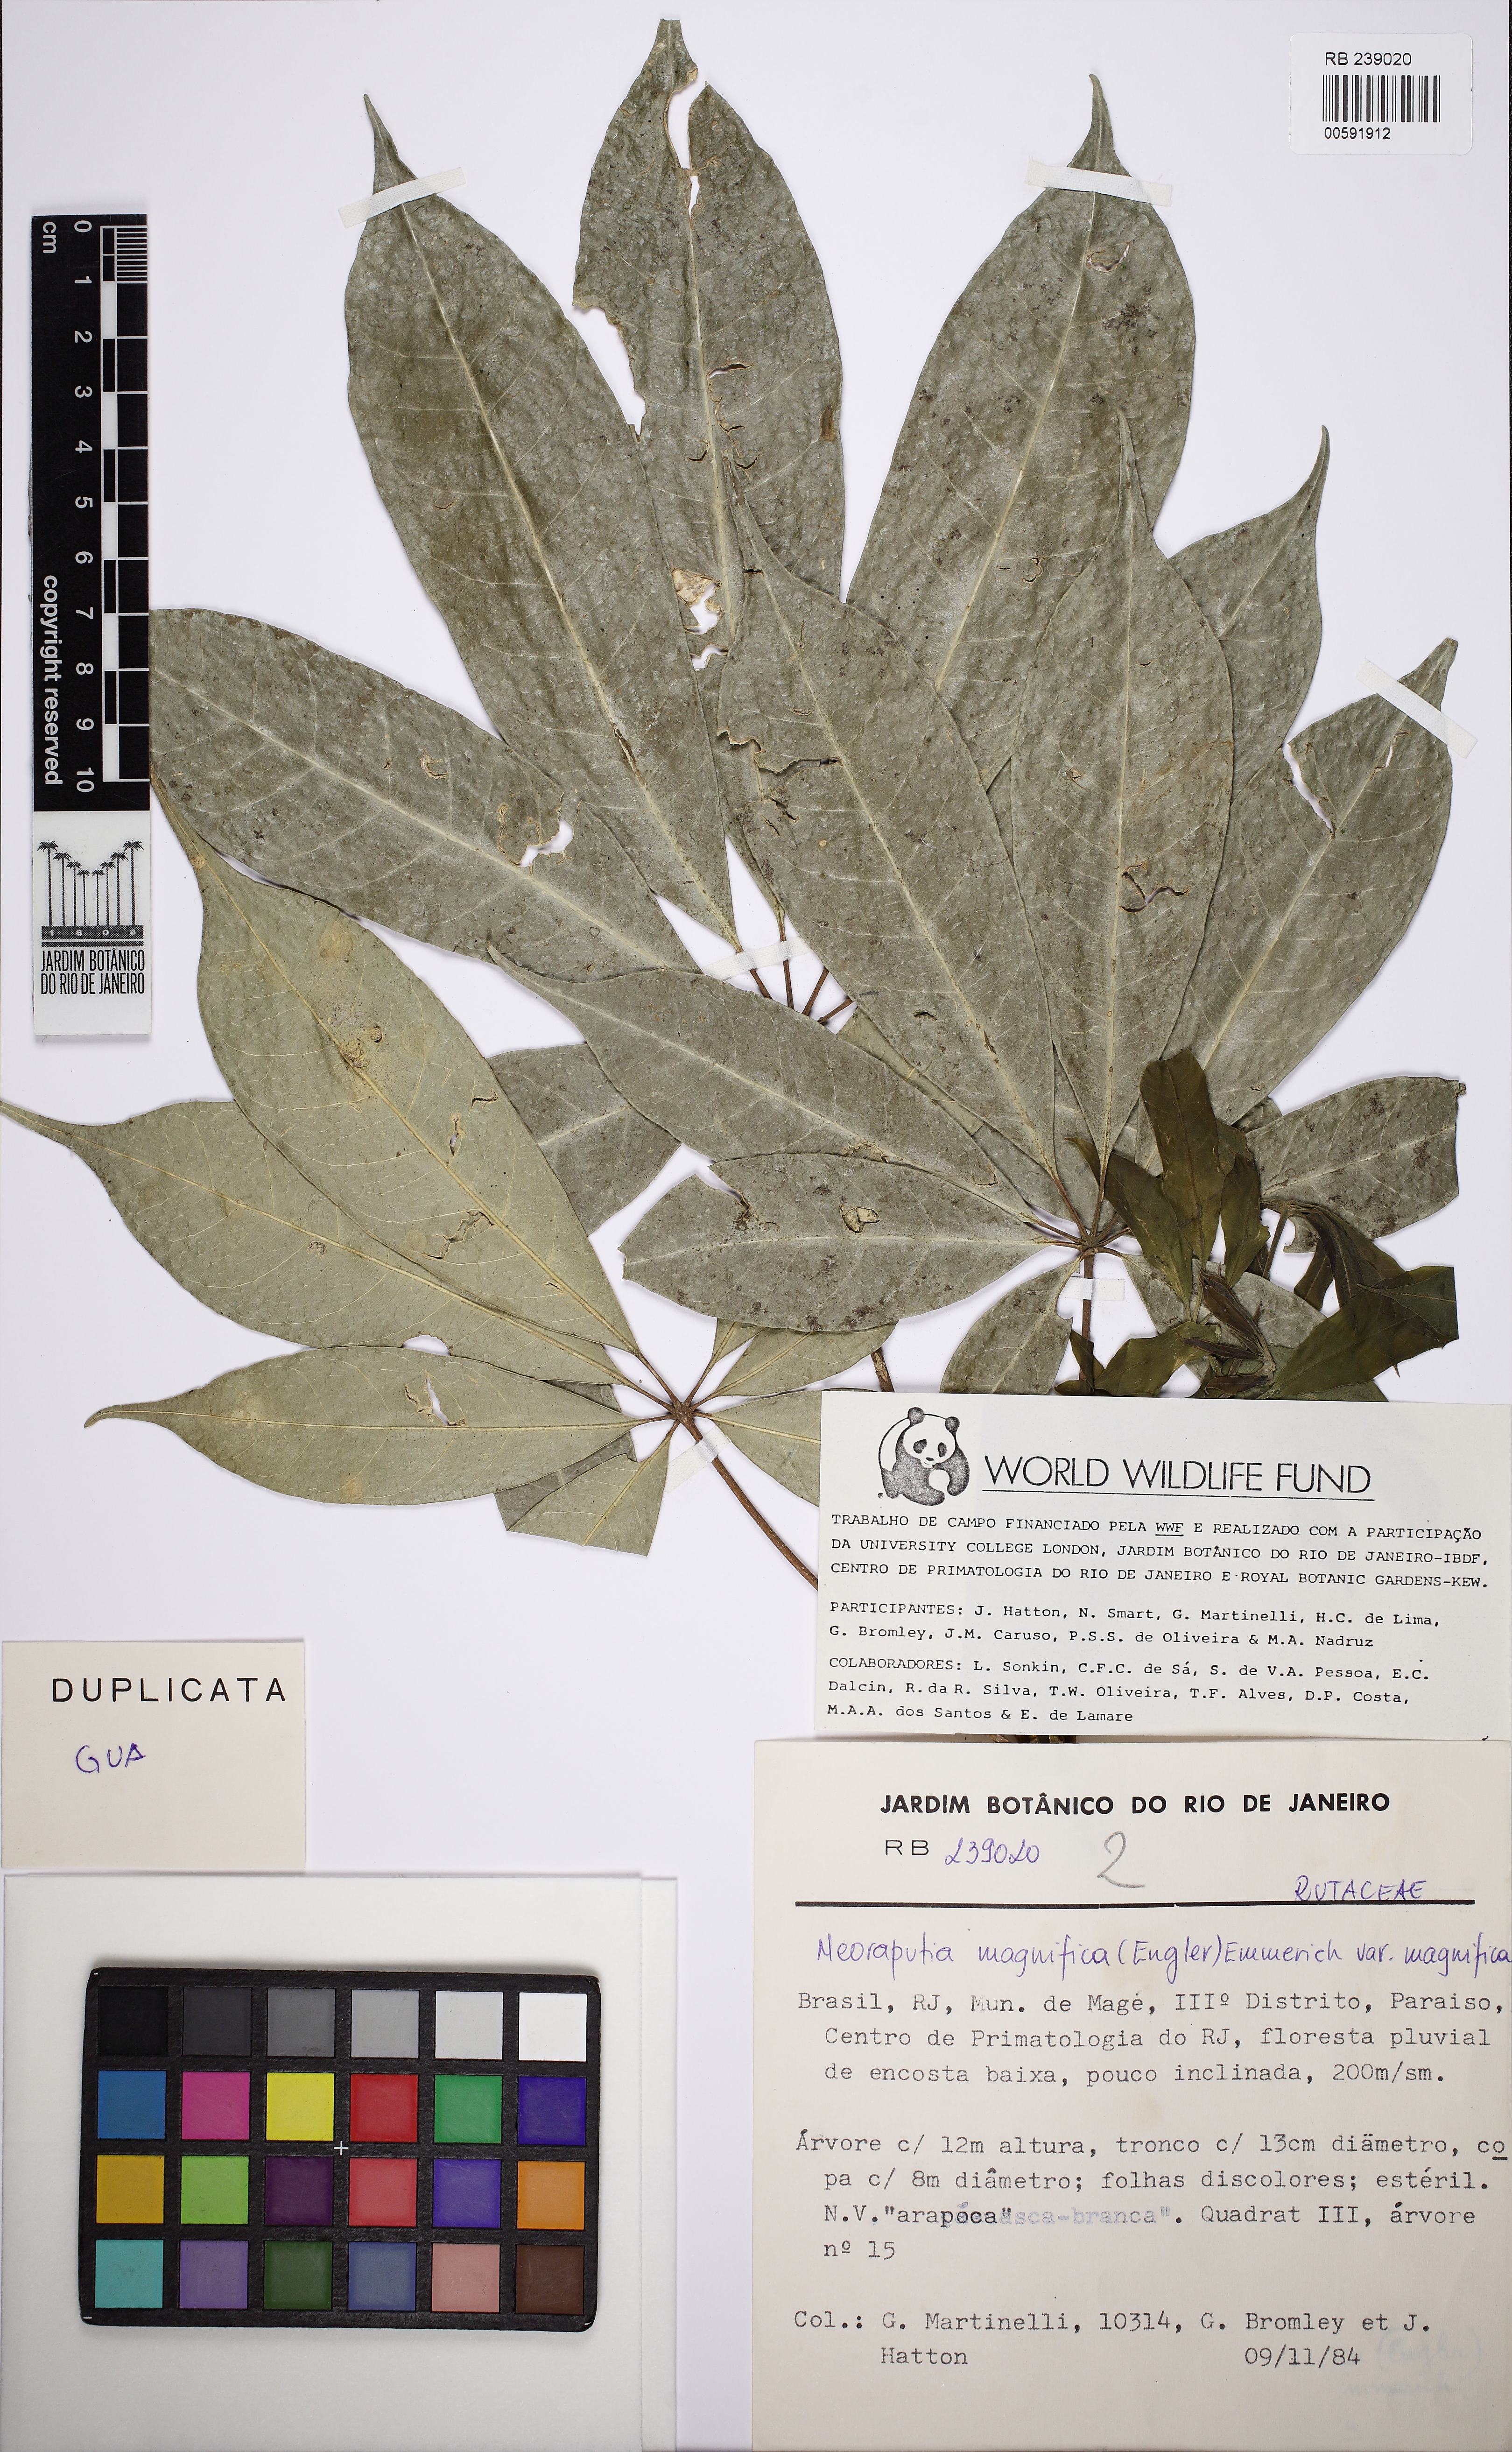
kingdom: Plantae
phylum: Tracheophyta
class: Magnoliopsida
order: Sapindales
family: Rutaceae
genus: Neoraputia
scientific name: Neoraputia magnifica
